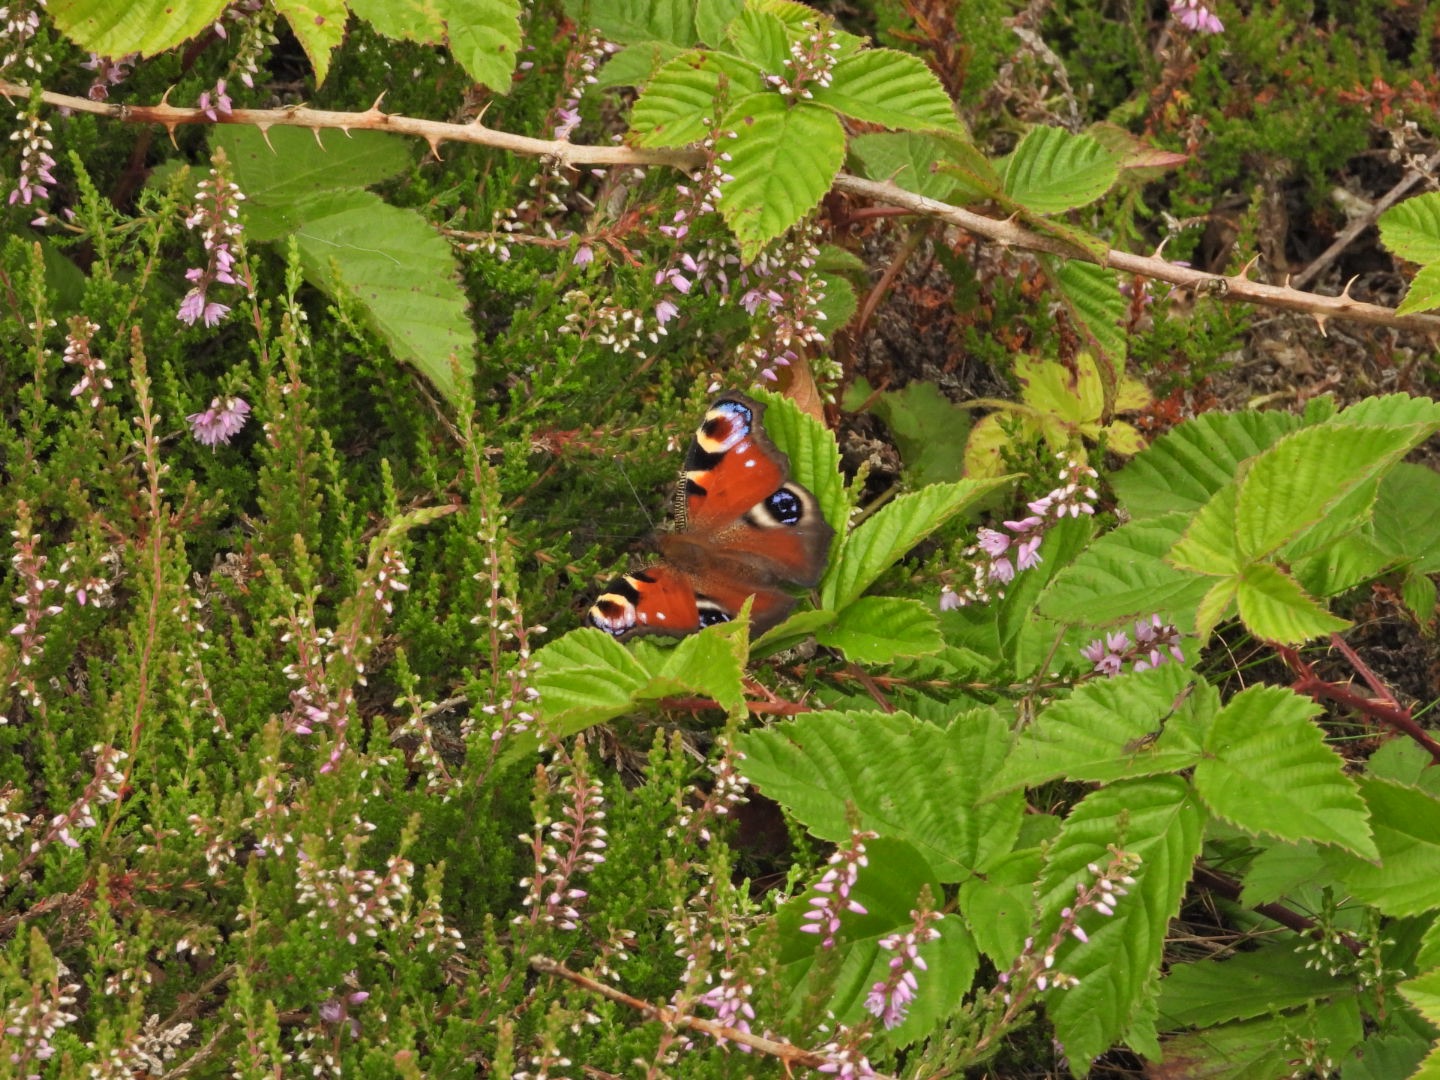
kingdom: Animalia
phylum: Arthropoda
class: Insecta
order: Lepidoptera
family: Nymphalidae
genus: Aglais
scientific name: Aglais io
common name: Dagpåfugleøje
